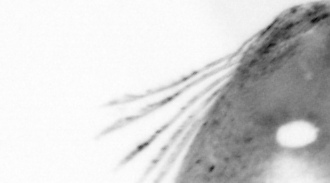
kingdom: Animalia
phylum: Chordata
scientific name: Chordata
